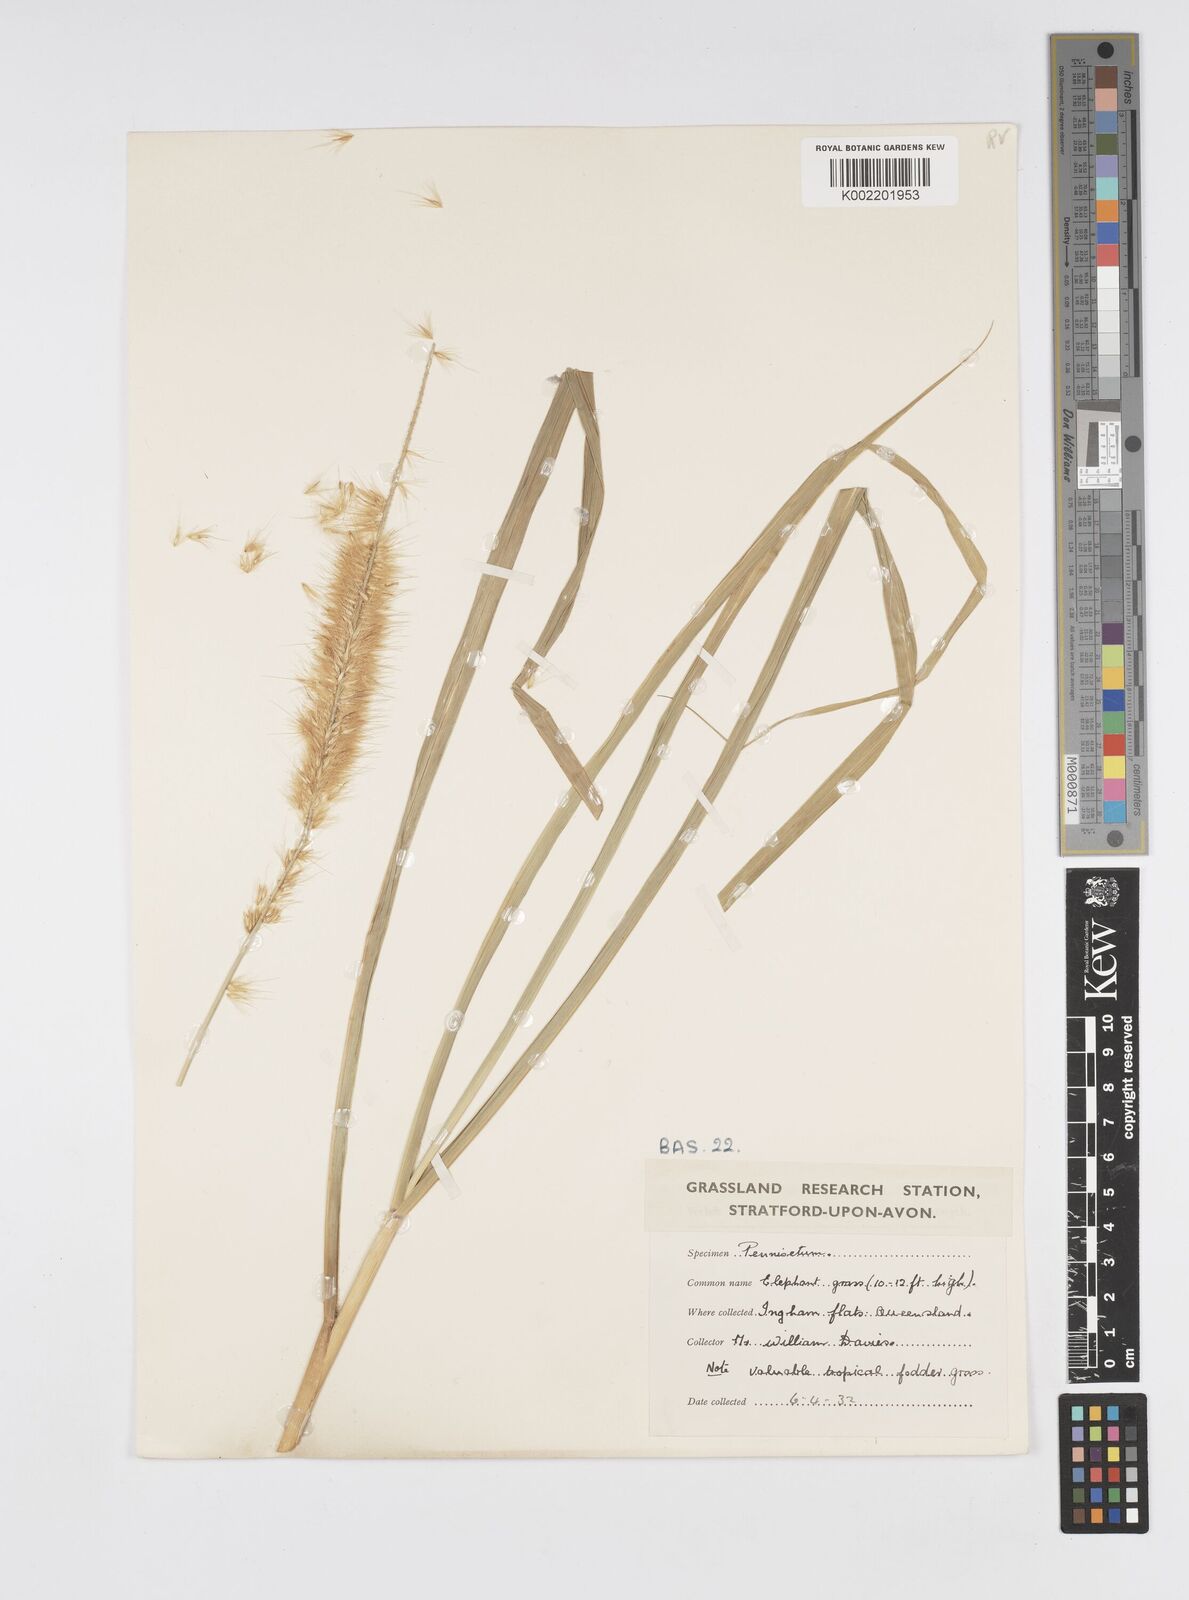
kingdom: Plantae
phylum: Tracheophyta
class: Liliopsida
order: Poales
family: Poaceae
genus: Cenchrus
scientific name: Cenchrus purpureus
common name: Elephant grass
